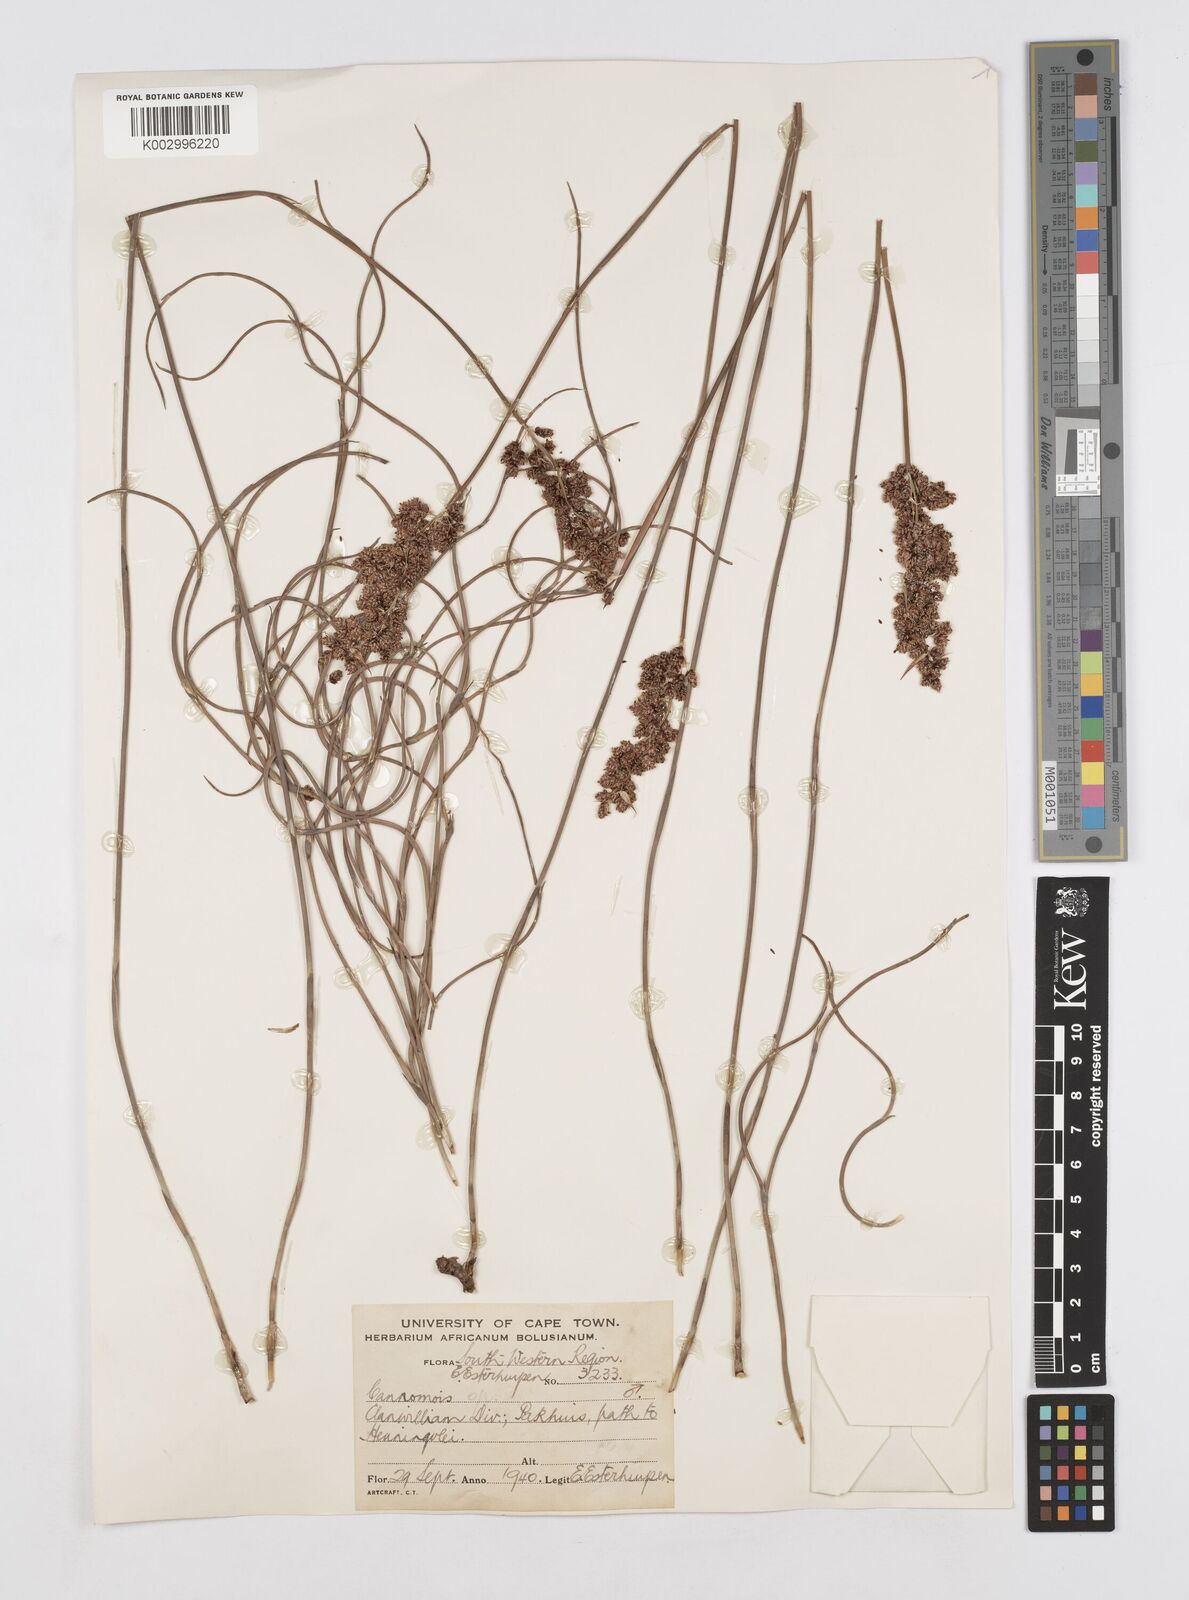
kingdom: Plantae
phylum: Tracheophyta
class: Liliopsida
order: Poales
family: Restionaceae
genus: Cannomois
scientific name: Cannomois
